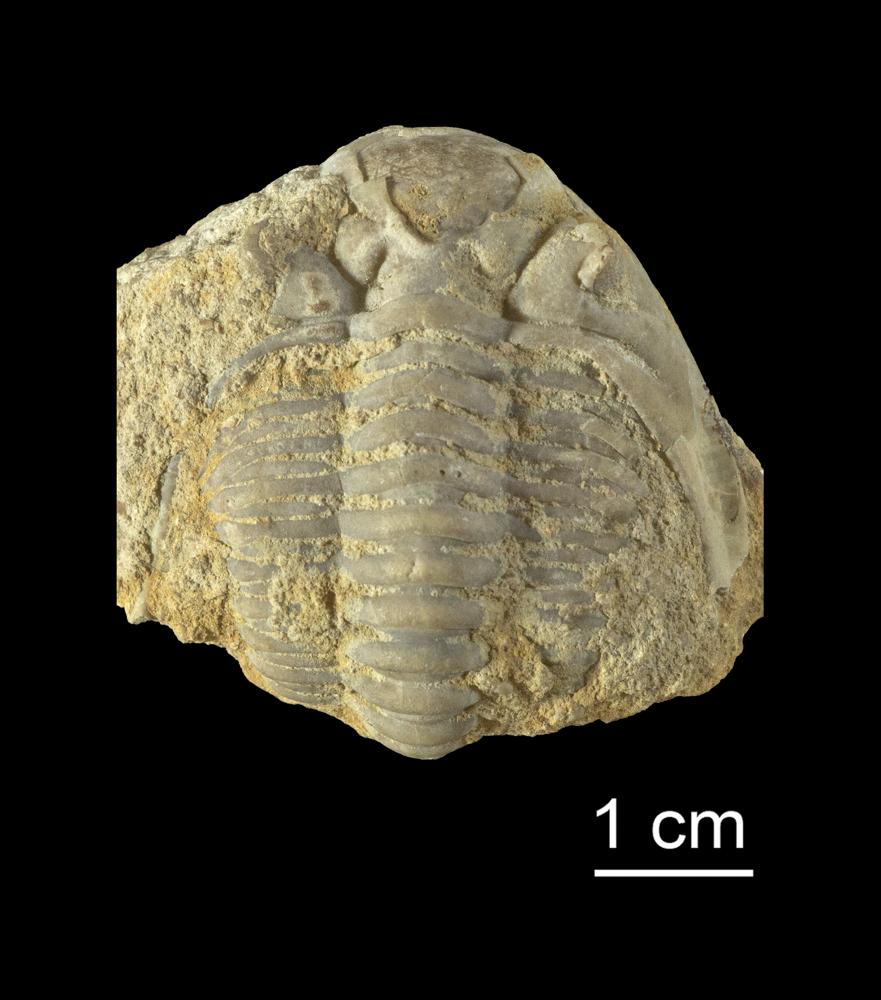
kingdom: Animalia
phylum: Arthropoda
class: Trilobita
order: Phacopida
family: Pterygometopidae
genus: Chasmops
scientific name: Chasmops odini
